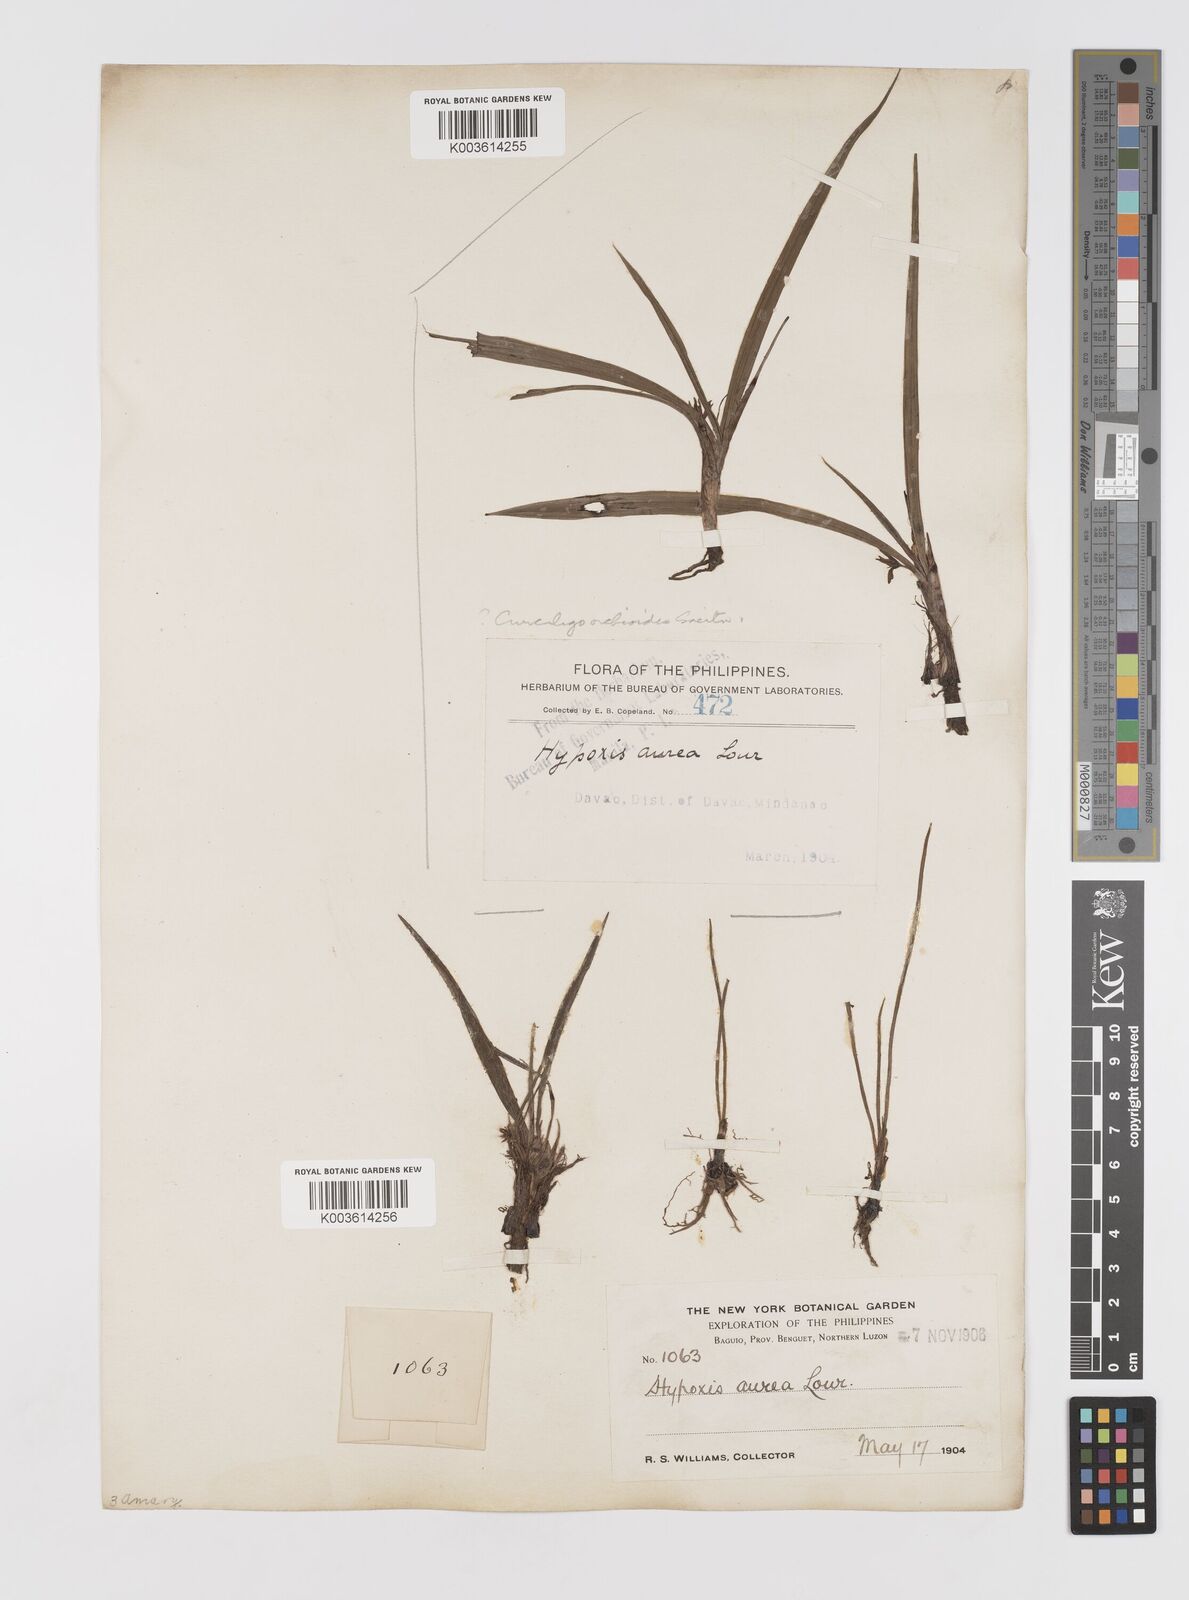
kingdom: Plantae
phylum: Tracheophyta
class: Liliopsida
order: Asparagales
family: Hypoxidaceae
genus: Curculigo
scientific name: Curculigo orchioides
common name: Golden eye-grass
